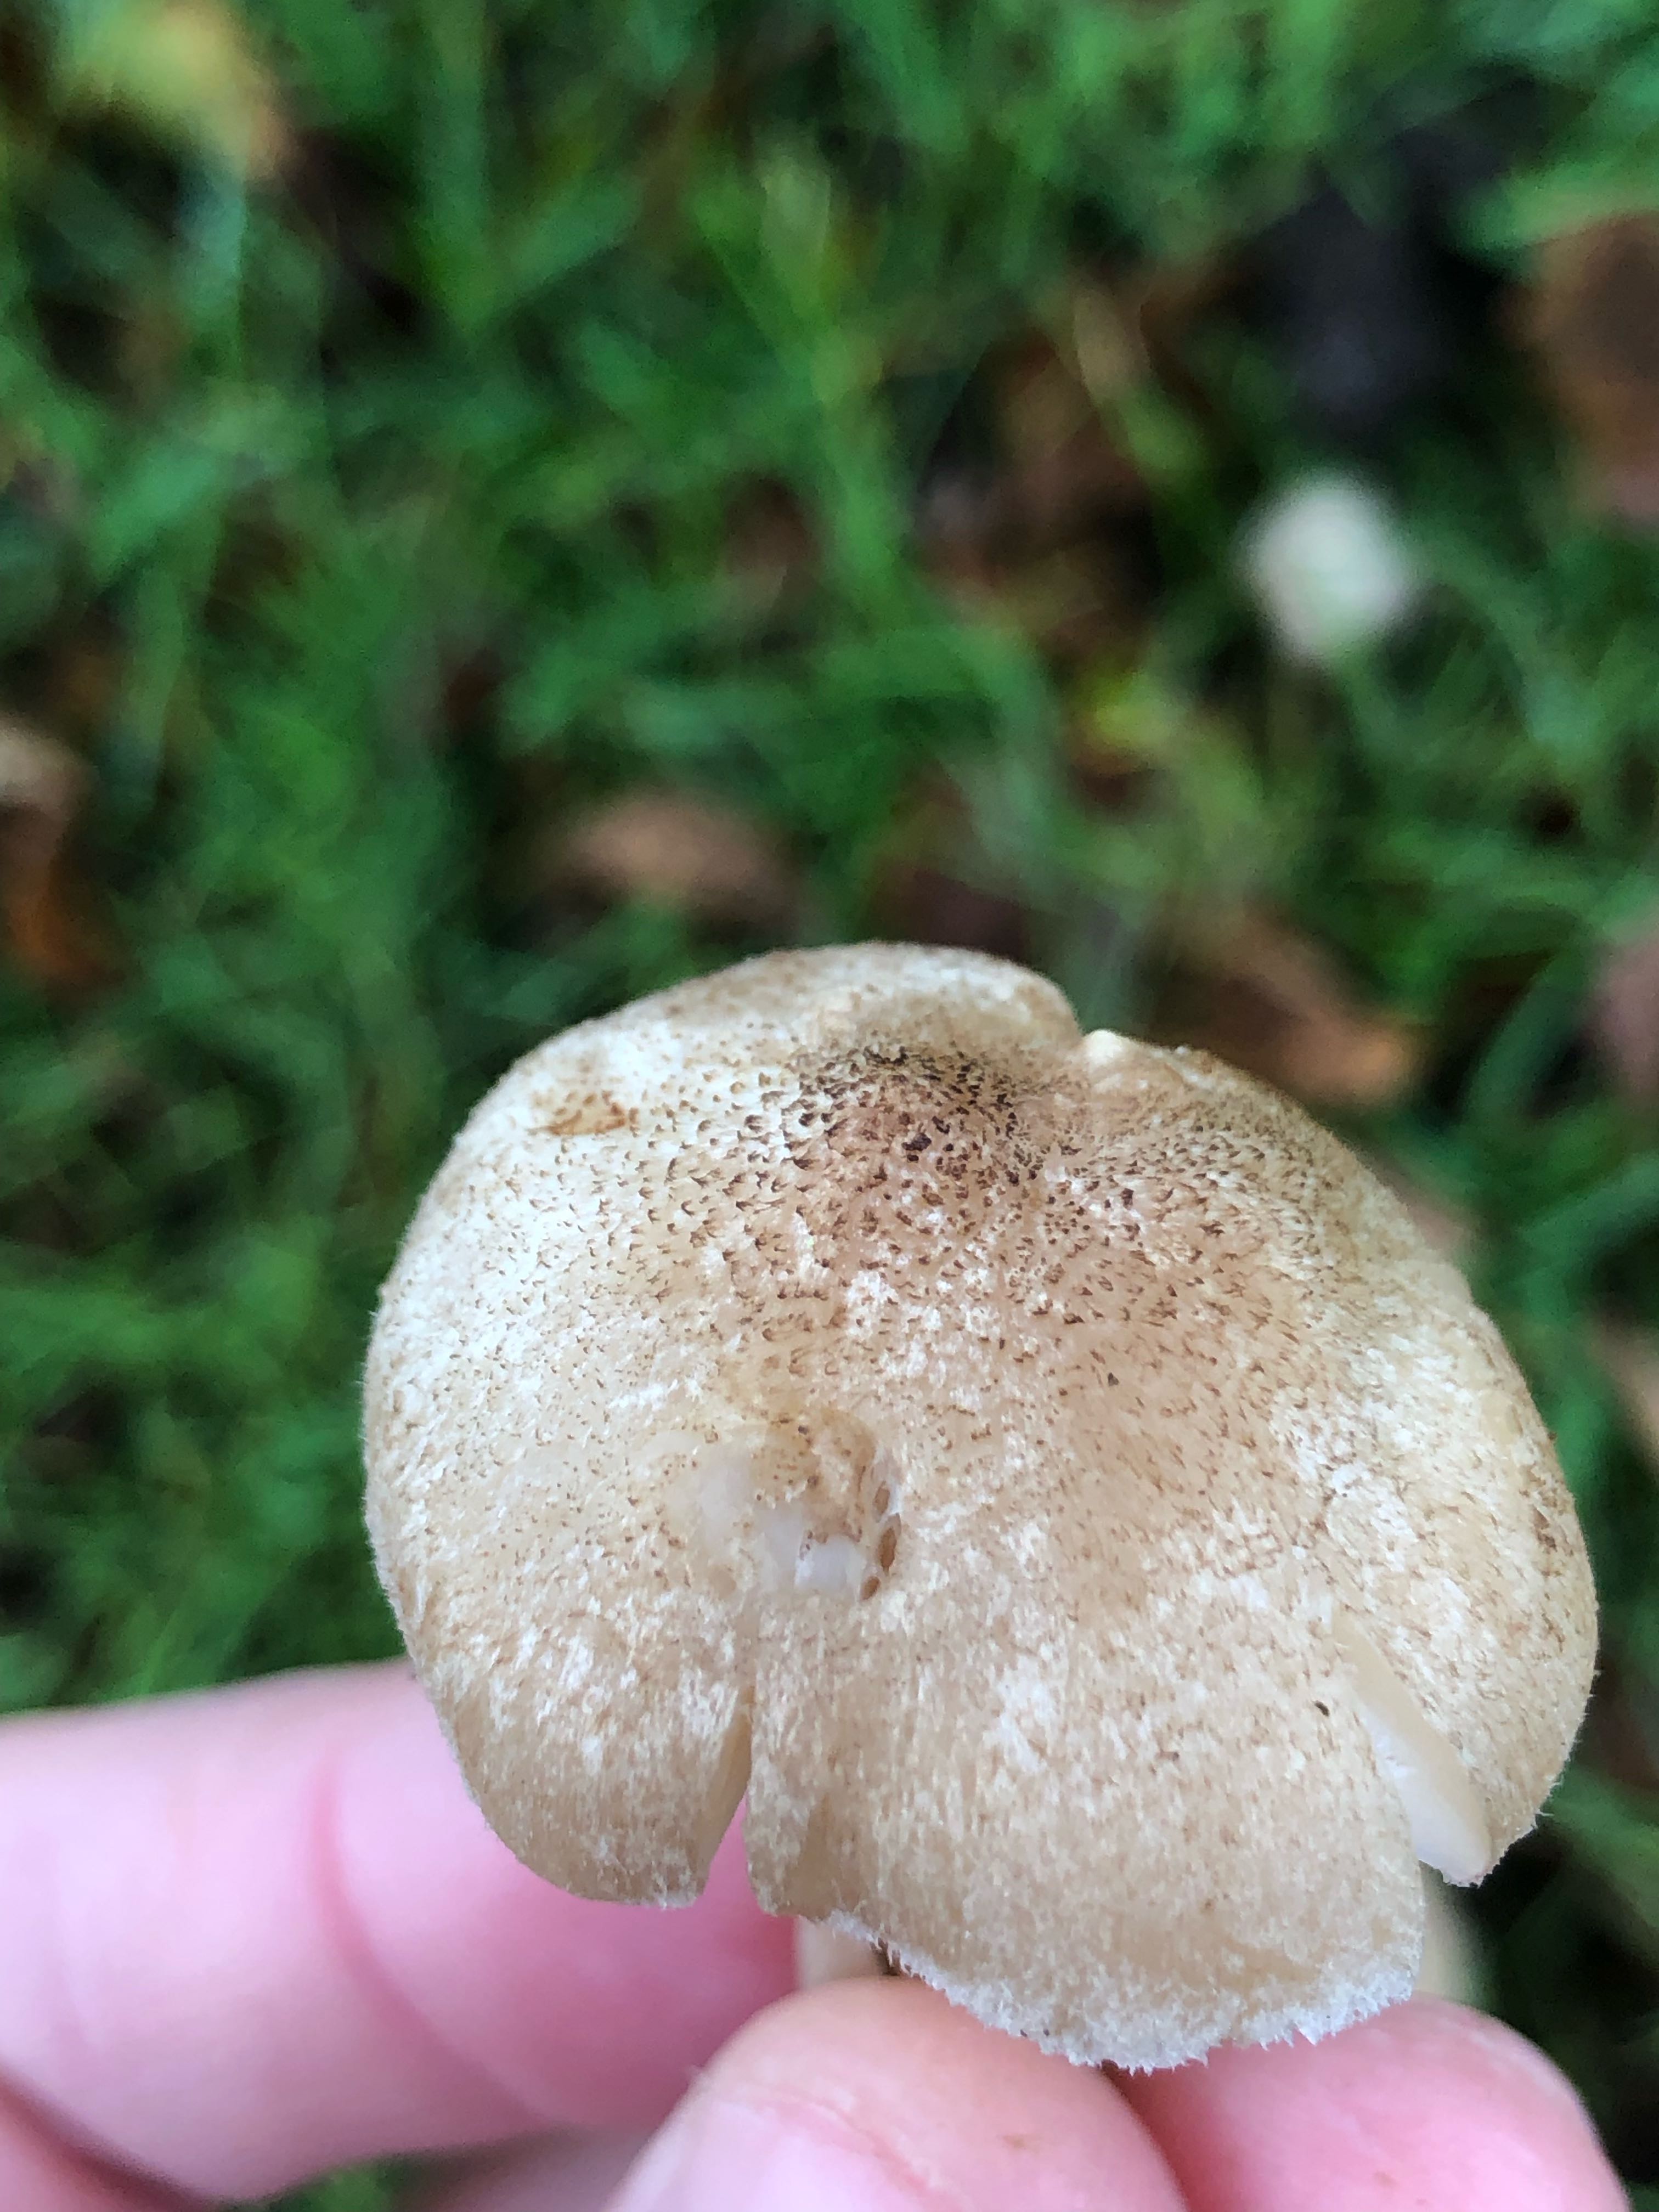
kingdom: Fungi
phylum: Basidiomycota
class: Agaricomycetes
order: Agaricales
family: Tricholomataceae
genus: Tricholoma
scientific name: Tricholoma
